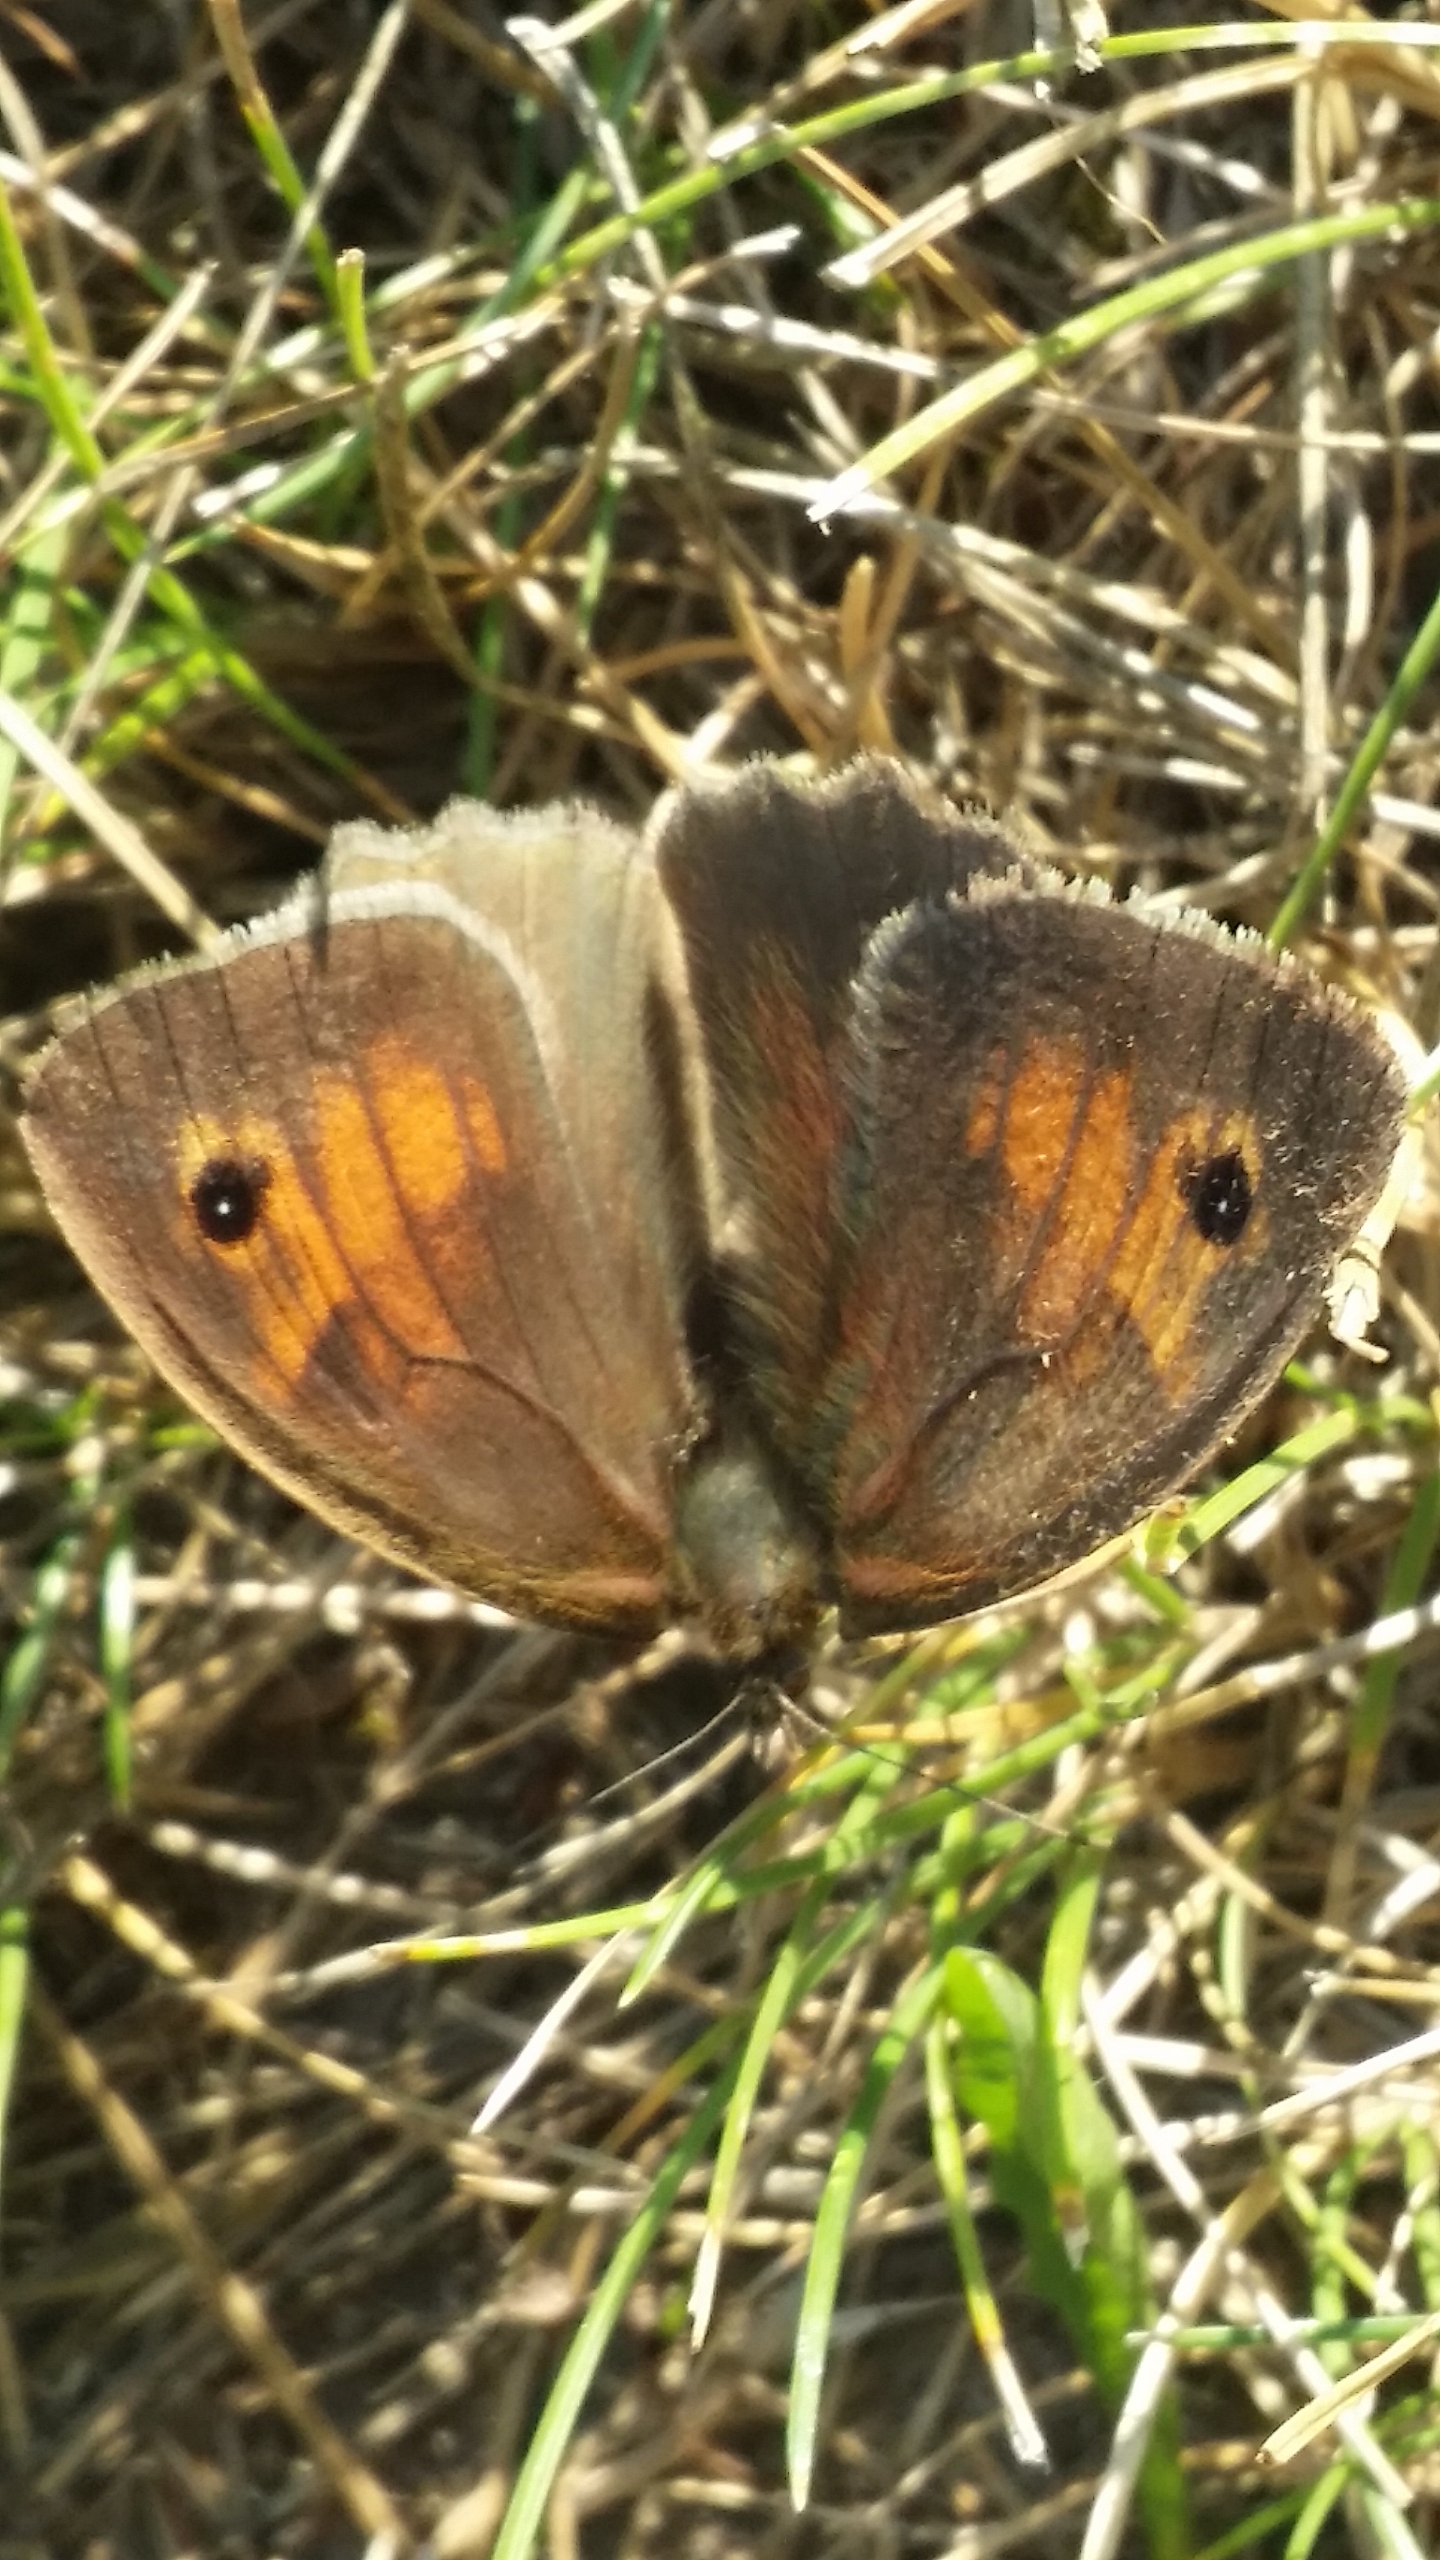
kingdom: Animalia
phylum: Arthropoda
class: Insecta
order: Lepidoptera
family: Nymphalidae
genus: Maniola
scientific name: Maniola jurtina
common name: Græsrandøje
